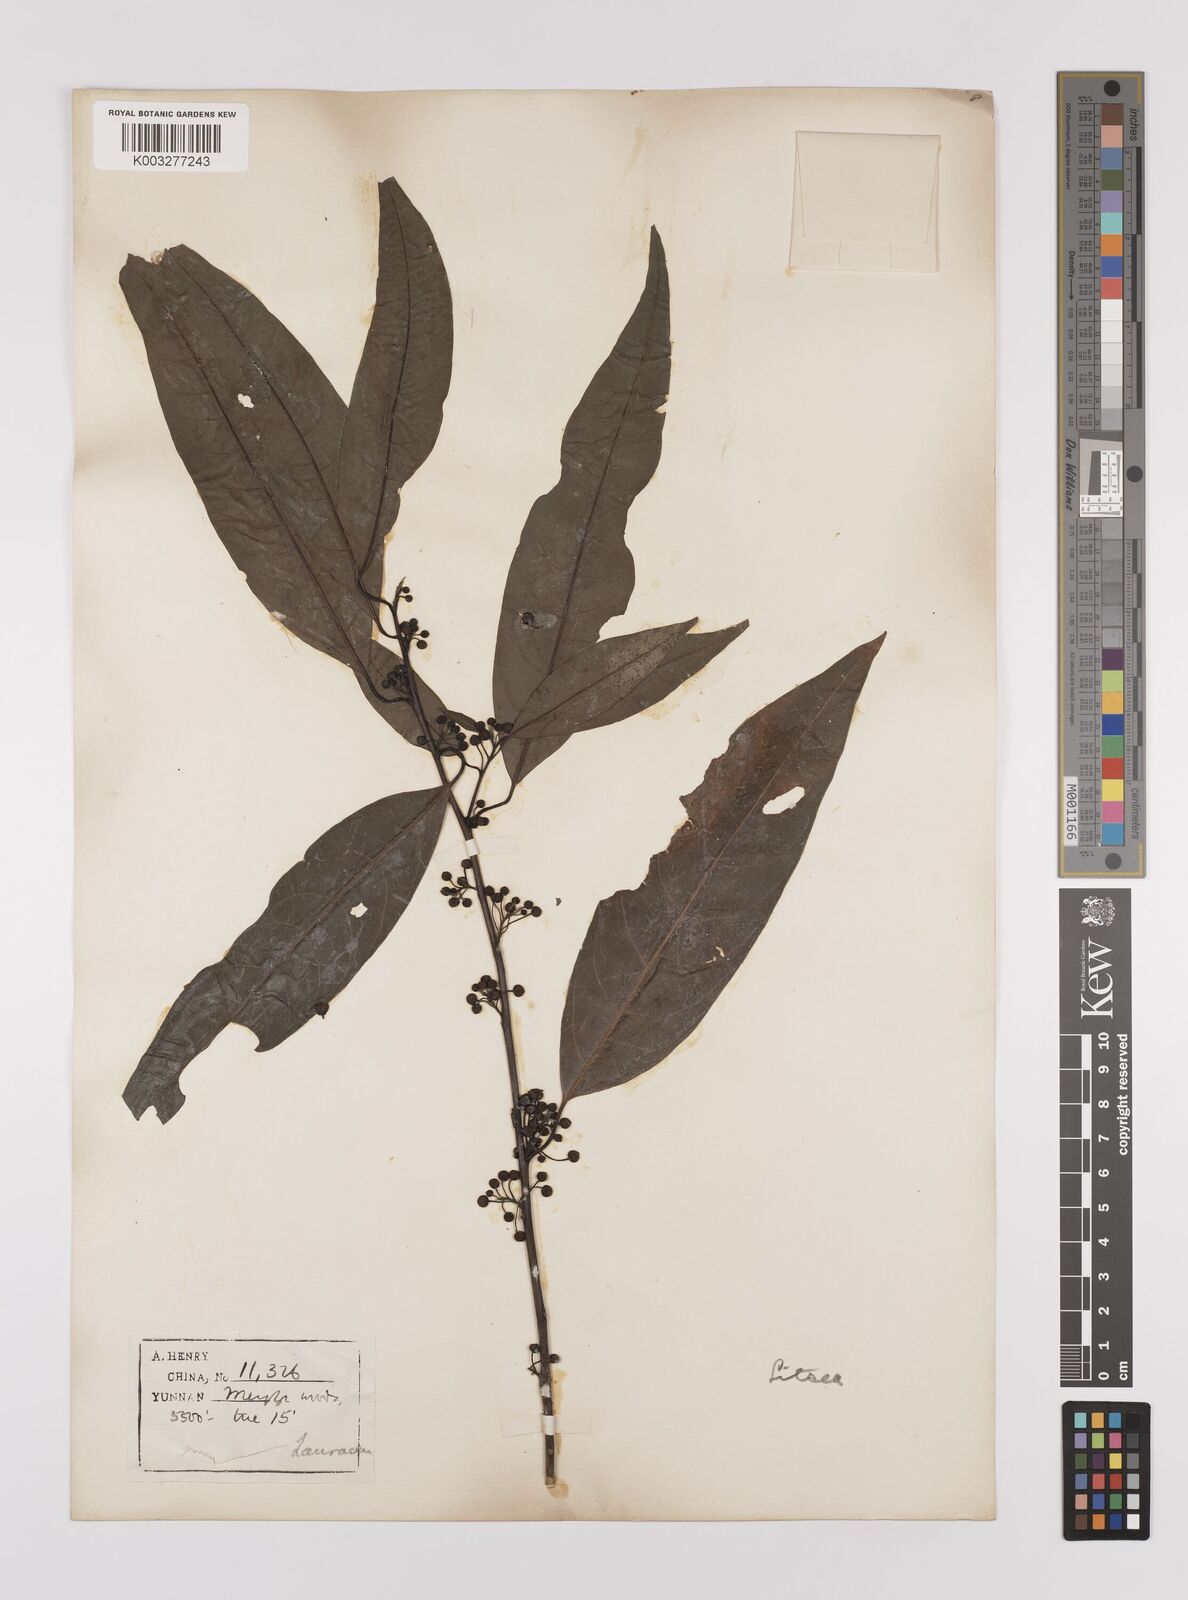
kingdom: Plantae
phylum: Tracheophyta
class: Magnoliopsida
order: Laurales
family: Lauraceae
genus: Lindera
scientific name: Lindera pipericarpa
